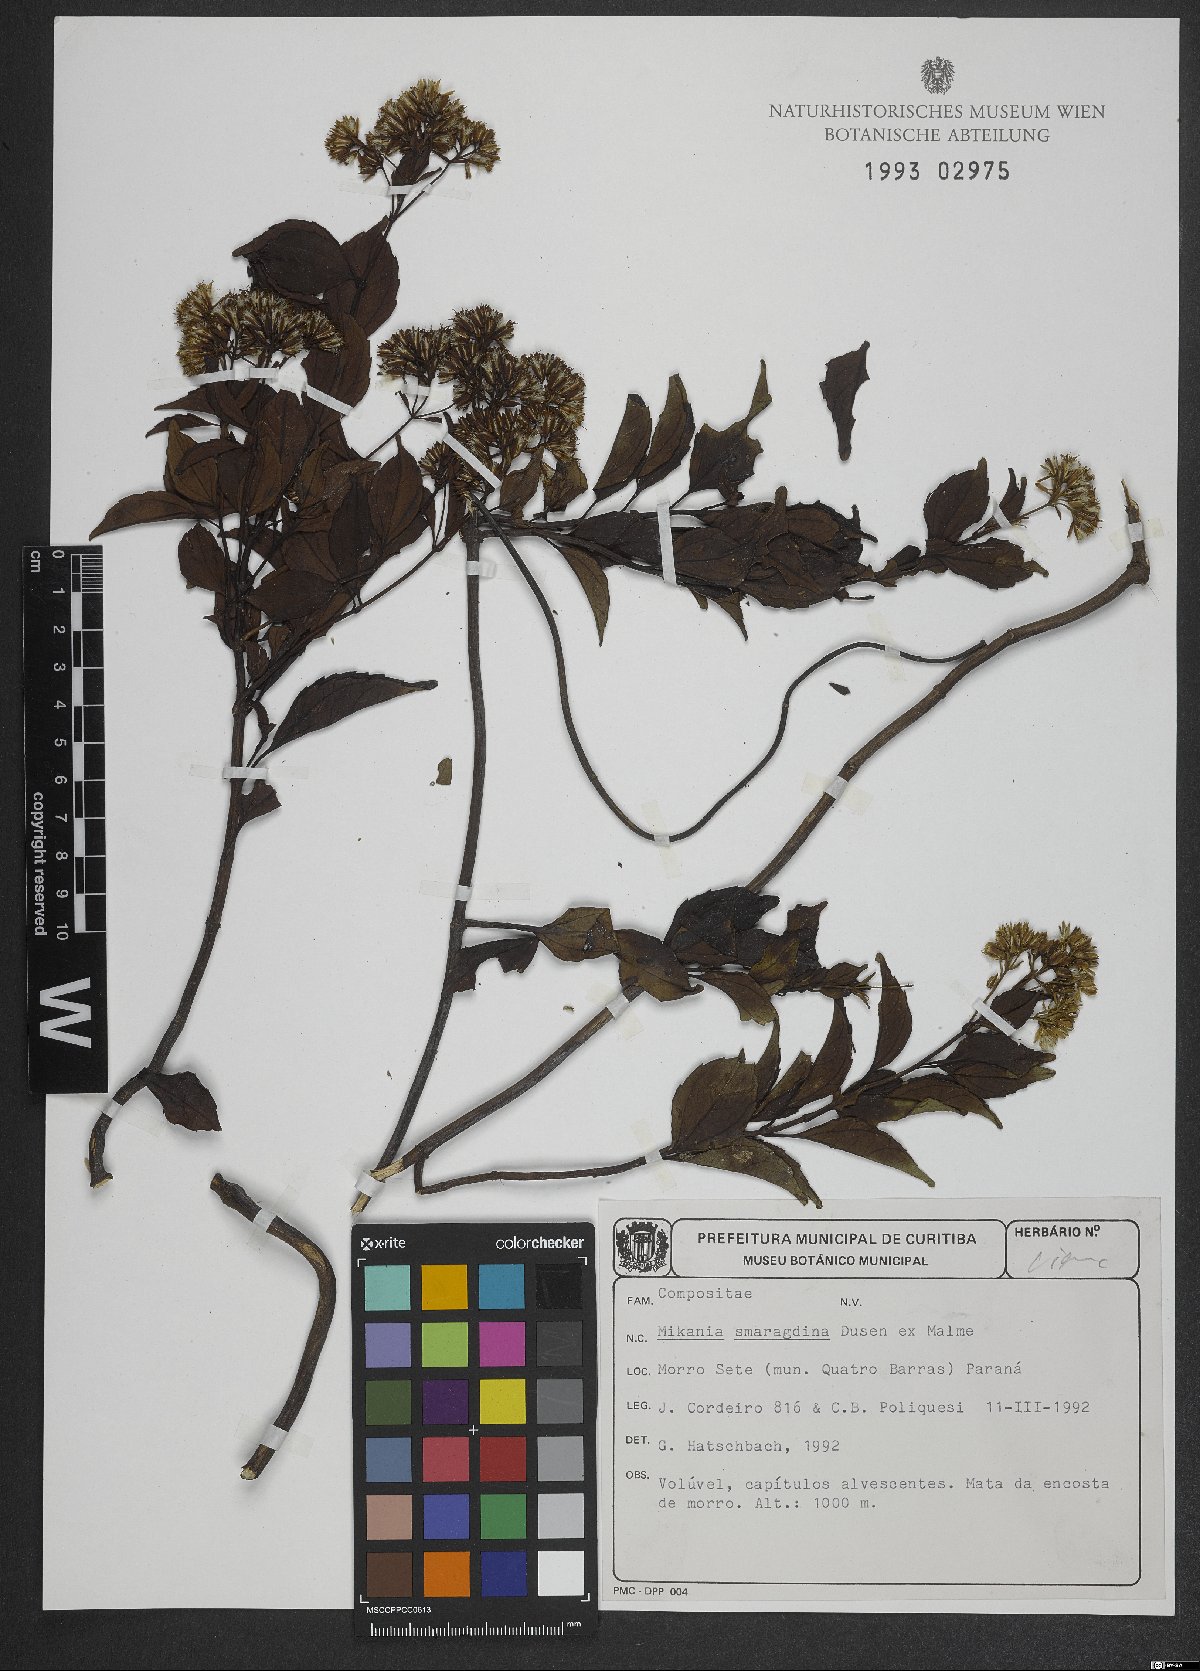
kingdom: Plantae
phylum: Tracheophyta
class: Magnoliopsida
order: Asterales
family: Asteraceae
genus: Mikania
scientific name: Mikania smaragdina
